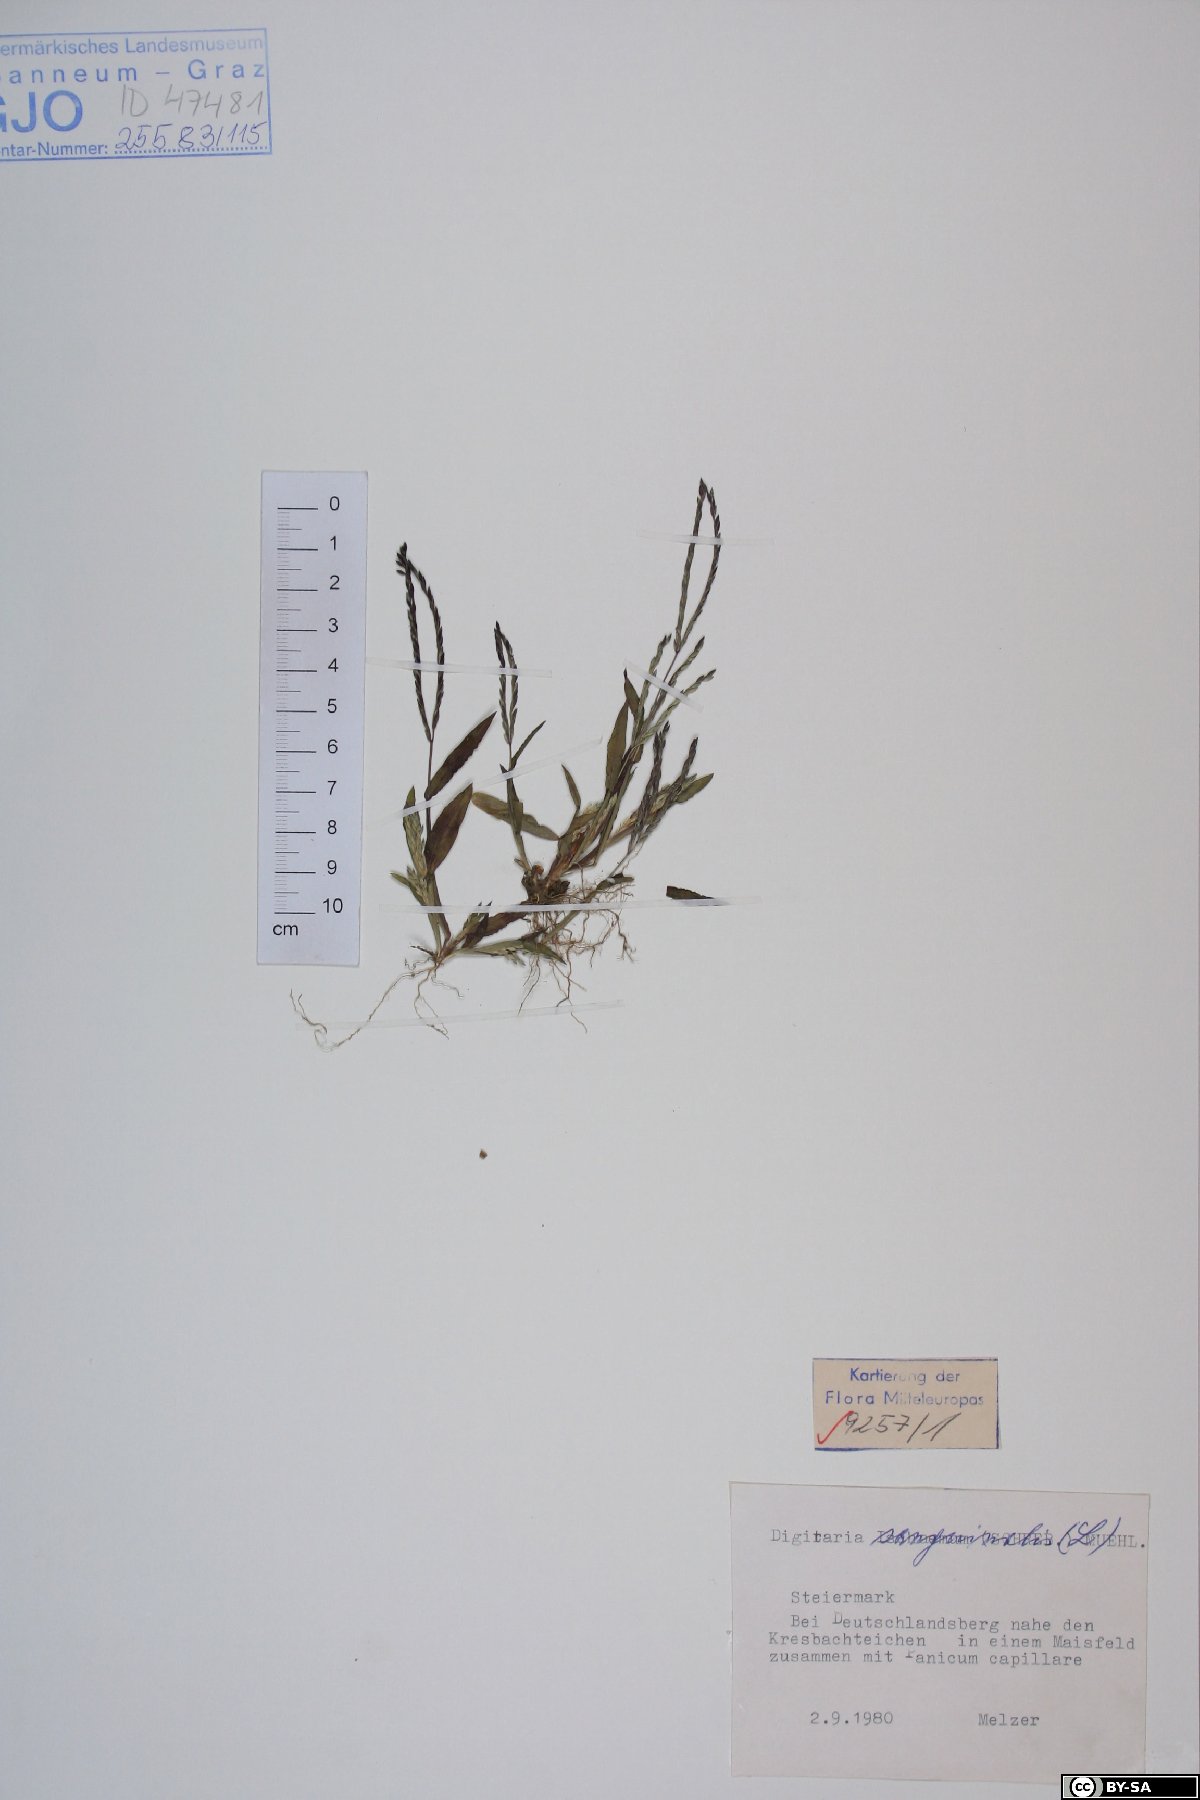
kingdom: Plantae
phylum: Tracheophyta
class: Liliopsida
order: Poales
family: Poaceae
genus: Digitaria
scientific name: Digitaria sanguinalis
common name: Hairy crabgrass
